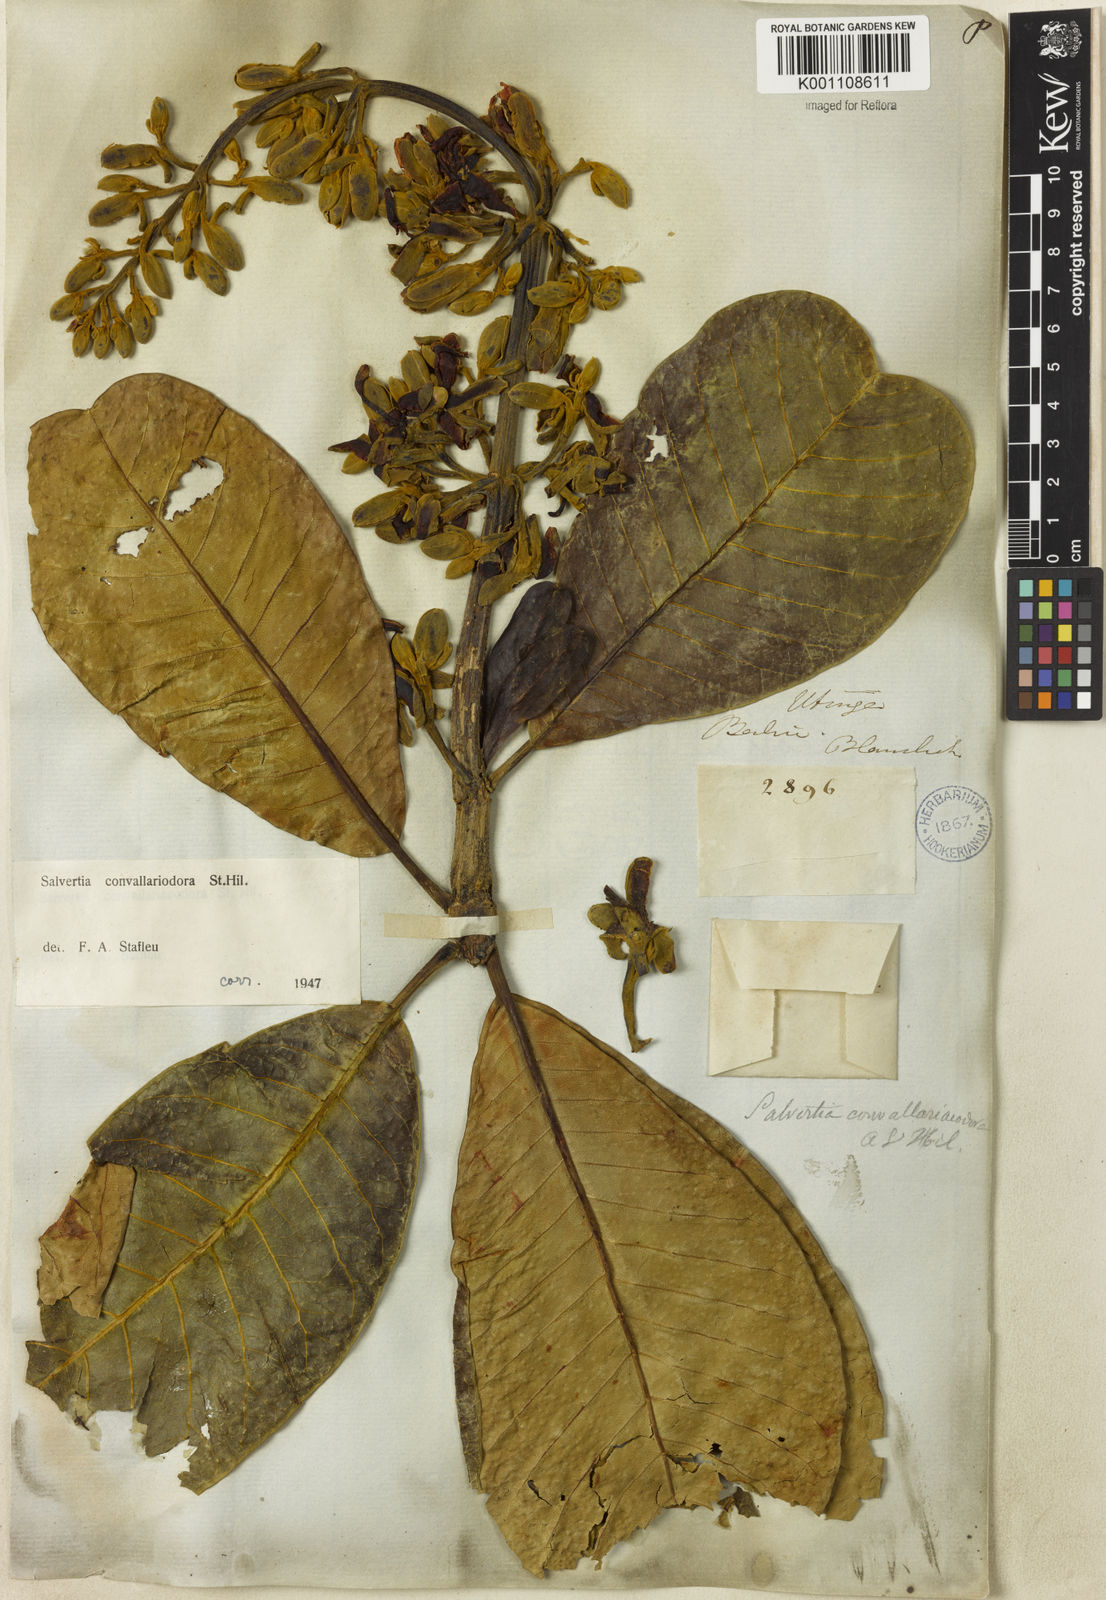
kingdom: Plantae
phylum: Tracheophyta
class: Magnoliopsida
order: Myrtales
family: Vochysiaceae
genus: Salvertia
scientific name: Salvertia convallariodora
